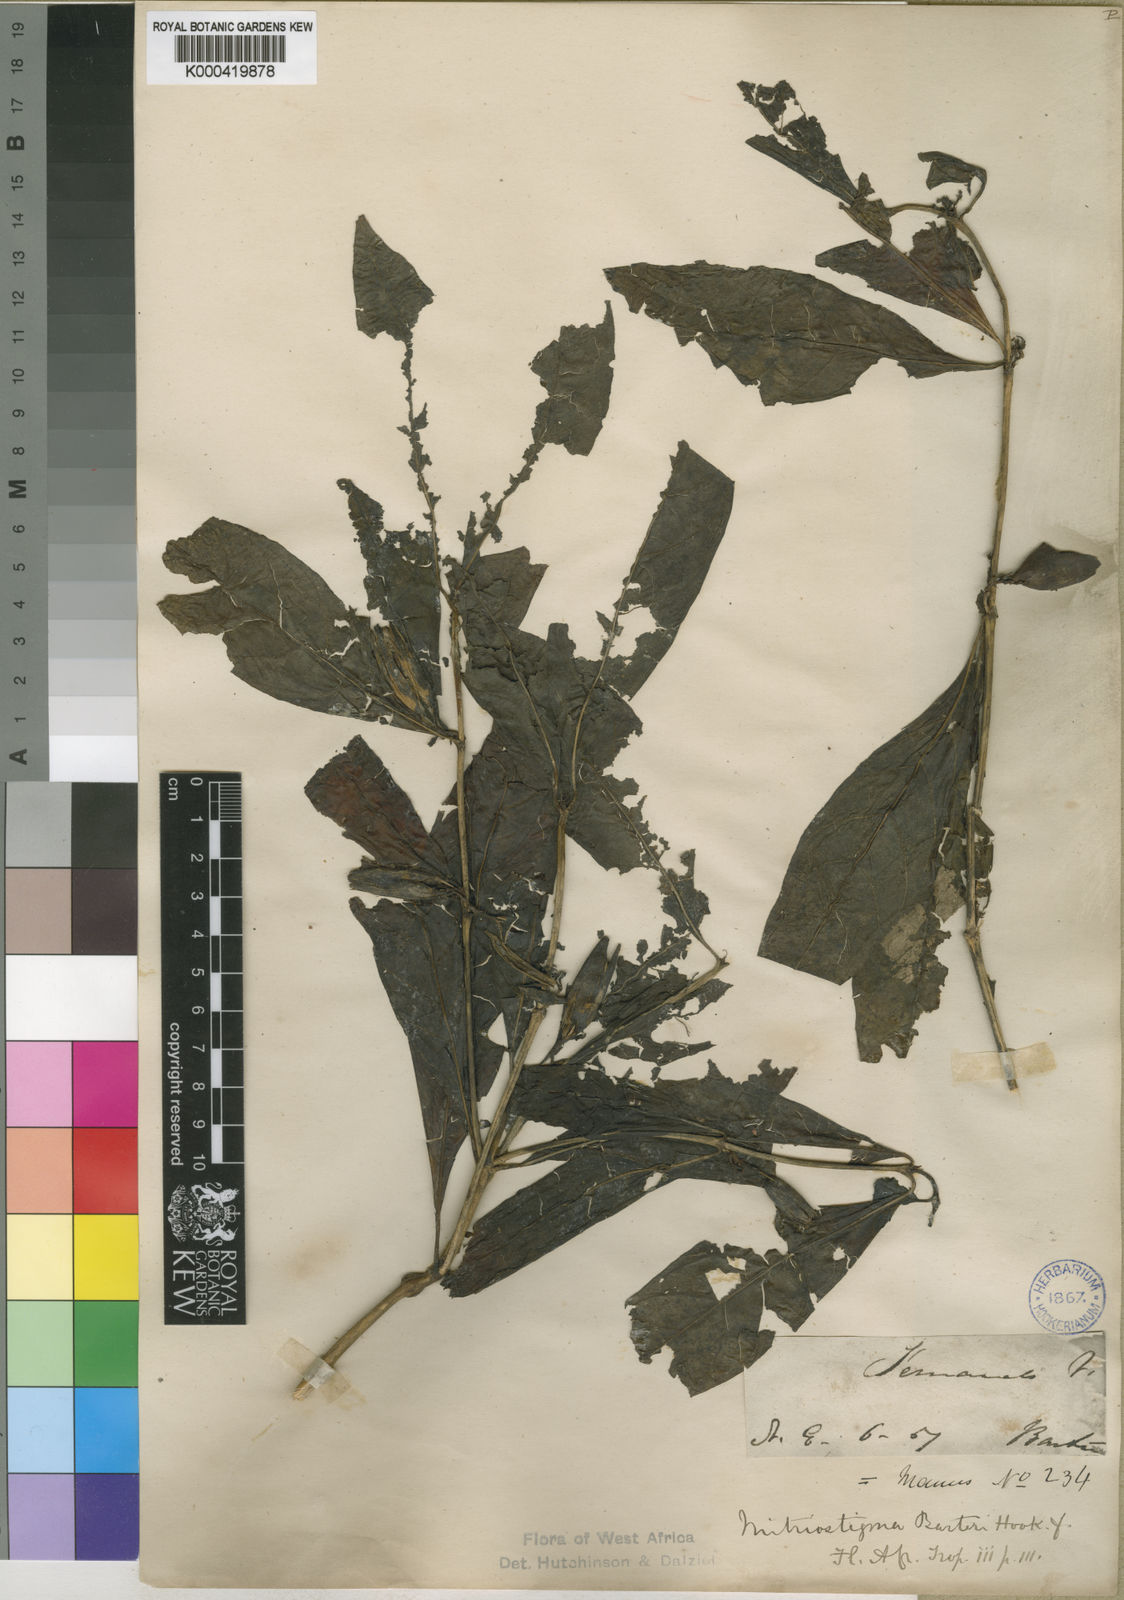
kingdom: Plantae
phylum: Tracheophyta
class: Magnoliopsida
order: Gentianales
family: Rubiaceae
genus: Mitriostigma
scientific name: Mitriostigma barteri
